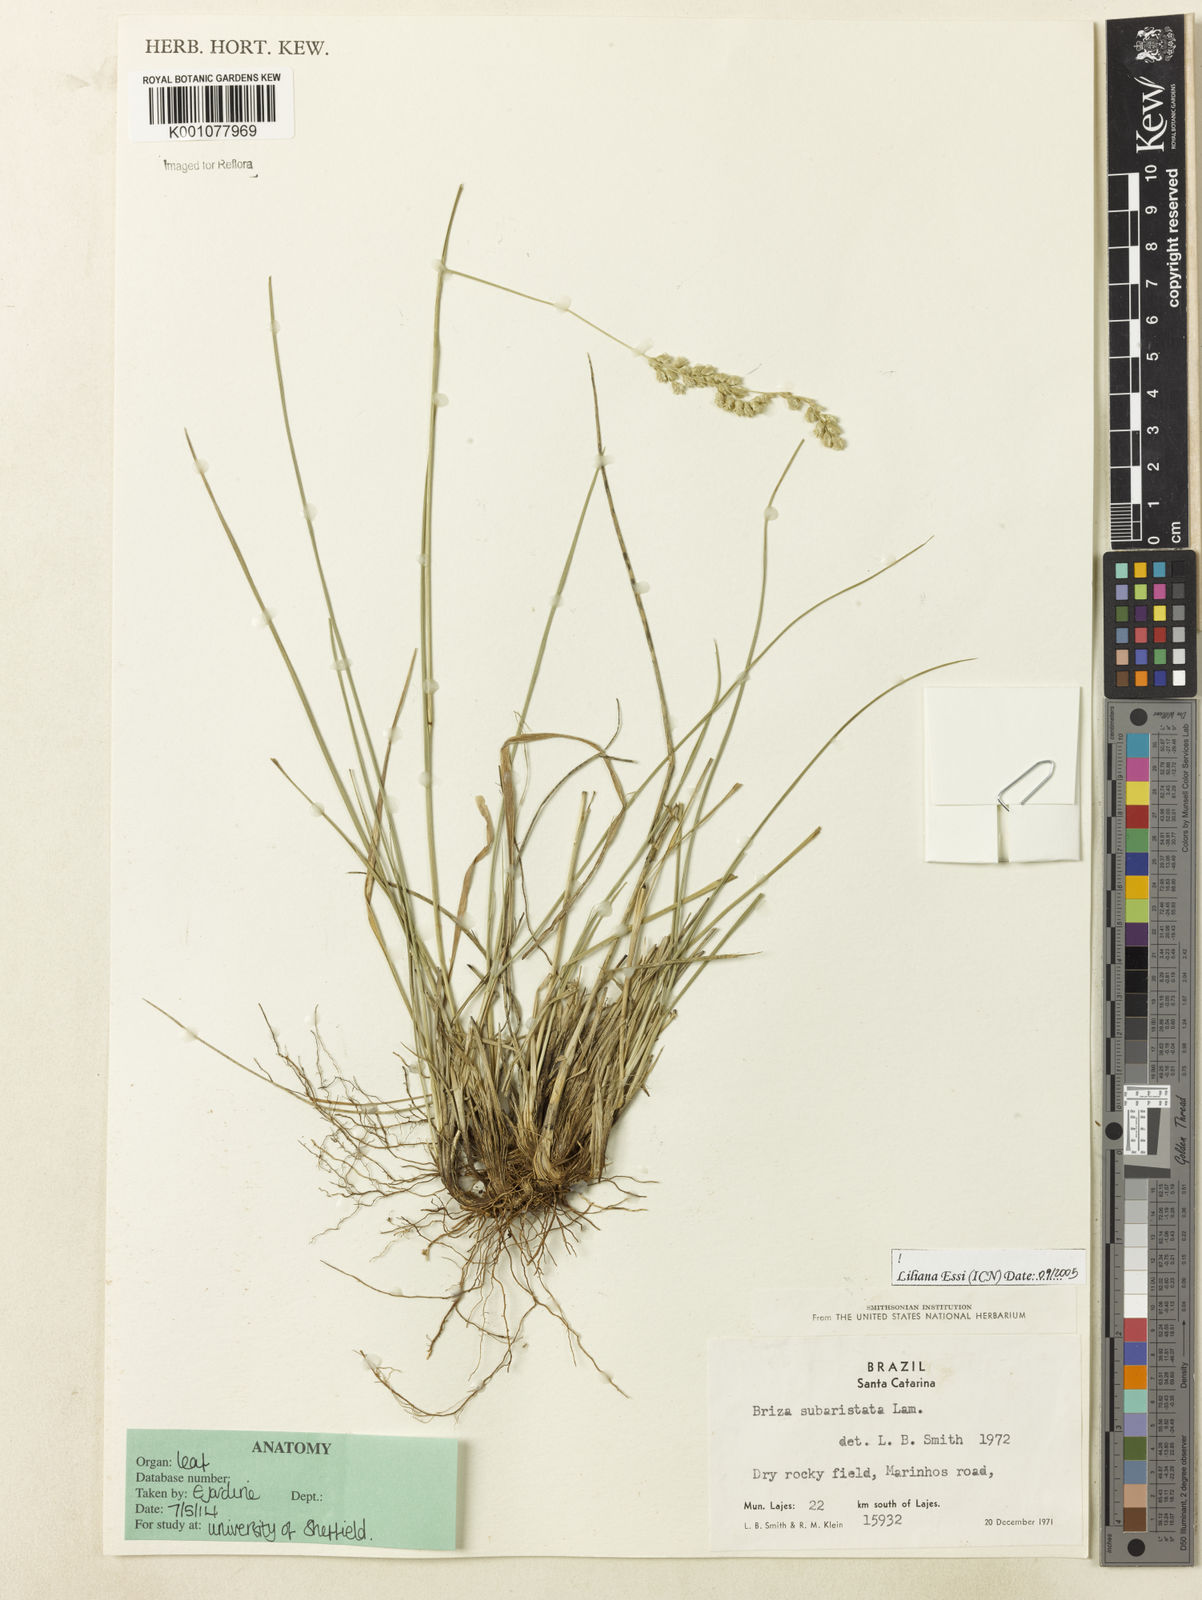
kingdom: Plantae
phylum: Tracheophyta
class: Liliopsida
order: Poales
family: Poaceae
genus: Briza
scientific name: Briza
